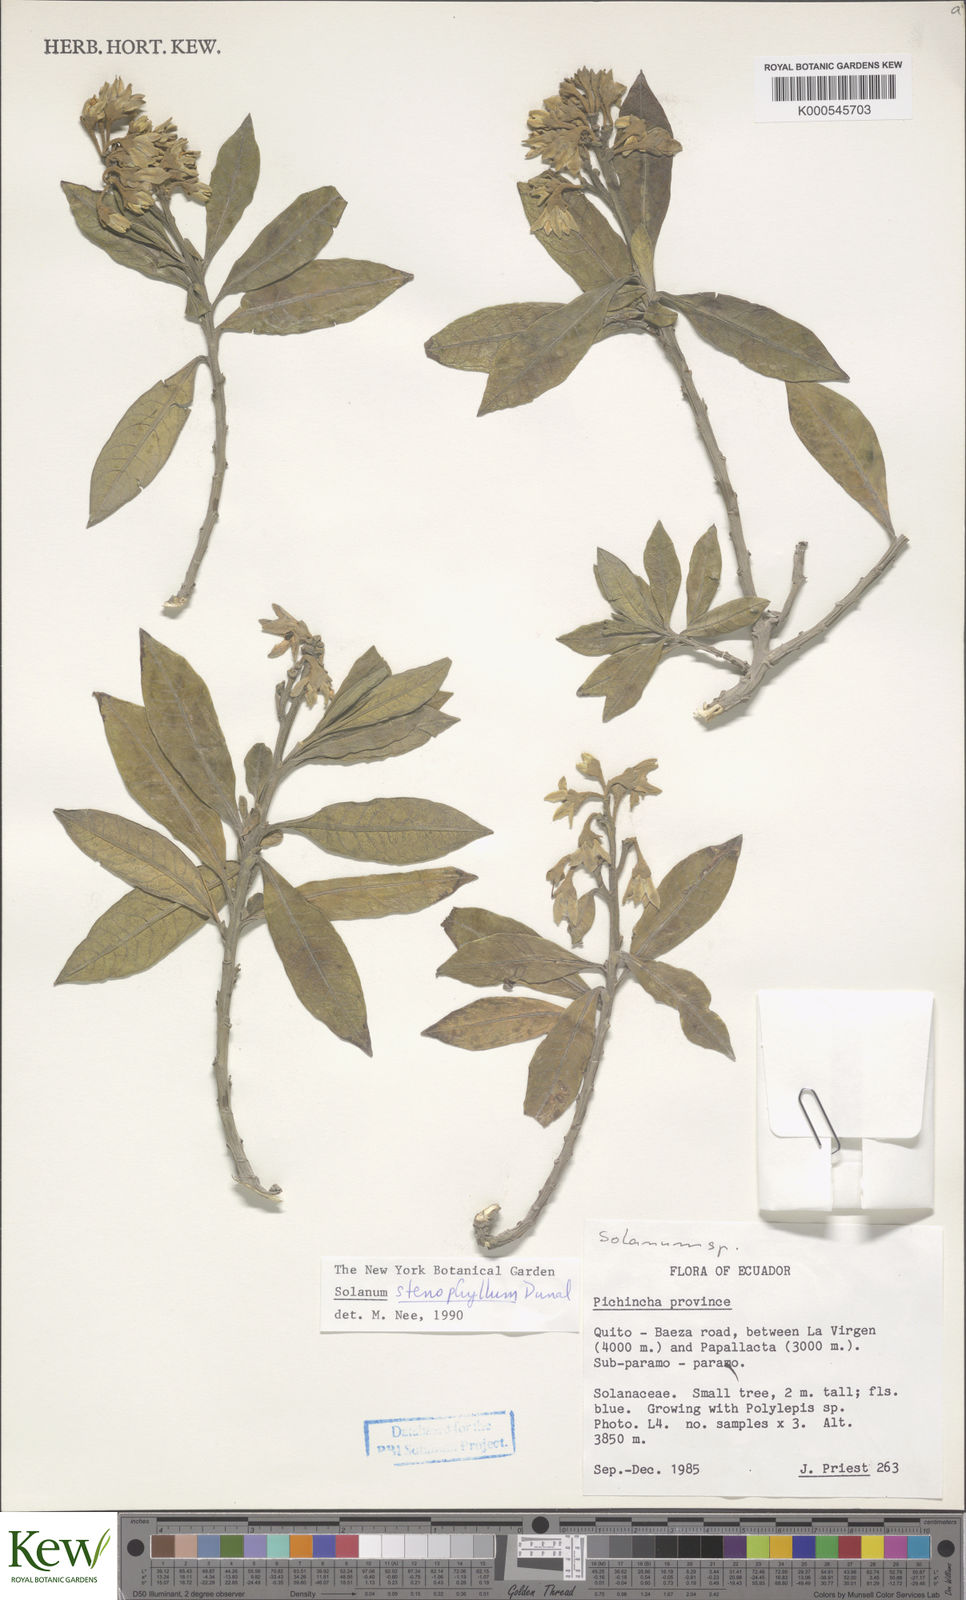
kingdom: Plantae
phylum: Tracheophyta
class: Magnoliopsida
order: Solanales
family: Solanaceae
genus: Solanum
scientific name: Solanum stenophyllum
